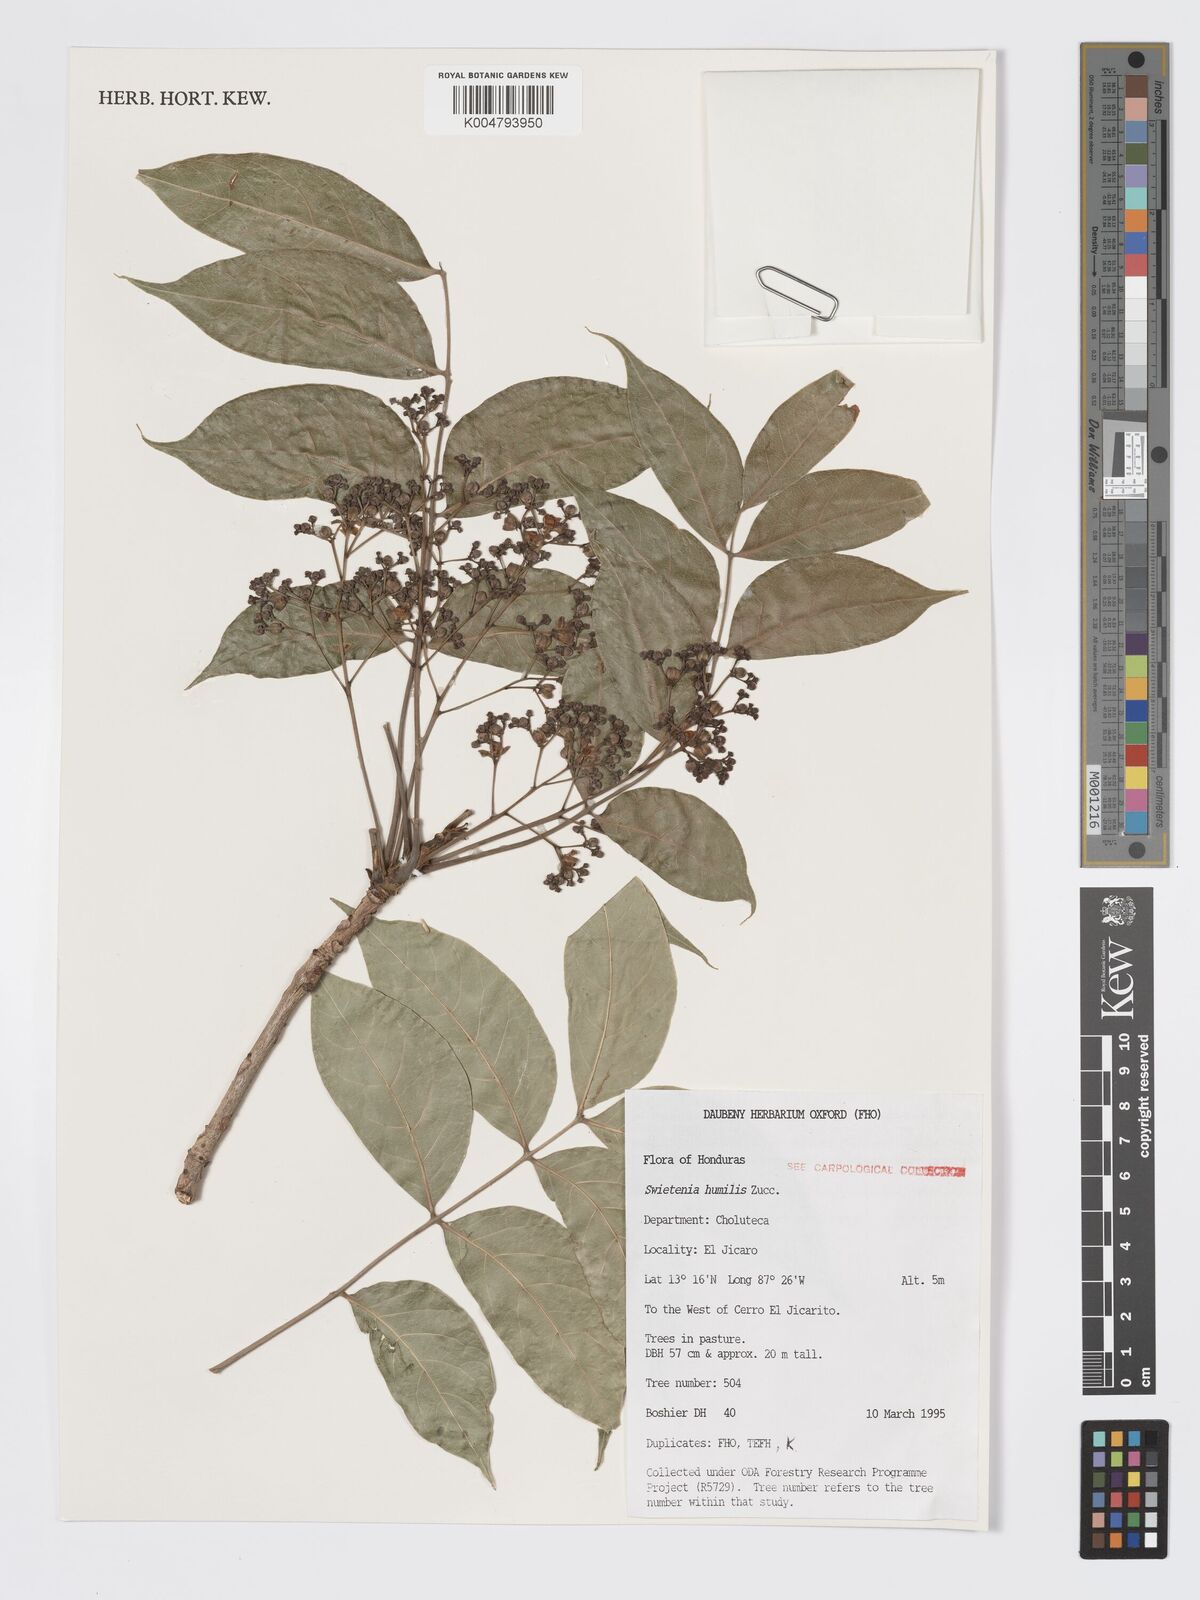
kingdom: Plantae
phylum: Tracheophyta
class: Magnoliopsida
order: Sapindales
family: Meliaceae
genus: Swietenia
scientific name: Swietenia humilis
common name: Pacific coast mahogany
